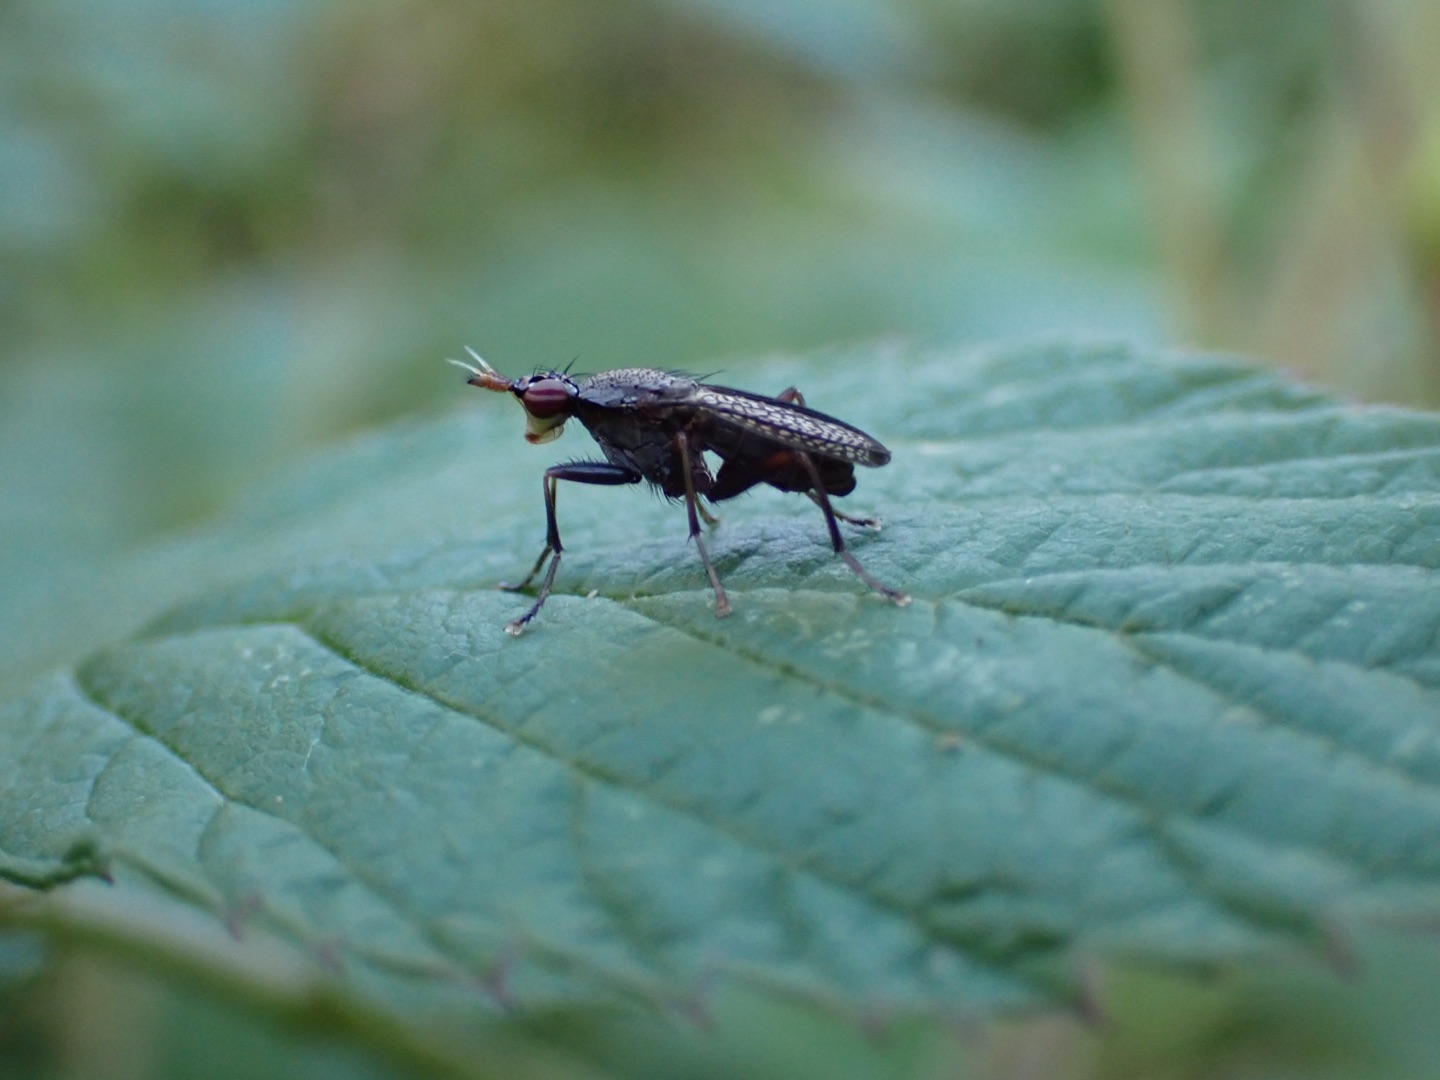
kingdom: Animalia
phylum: Arthropoda
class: Insecta
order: Diptera
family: Sciomyzidae
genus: Coremacera
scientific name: Coremacera marginata
